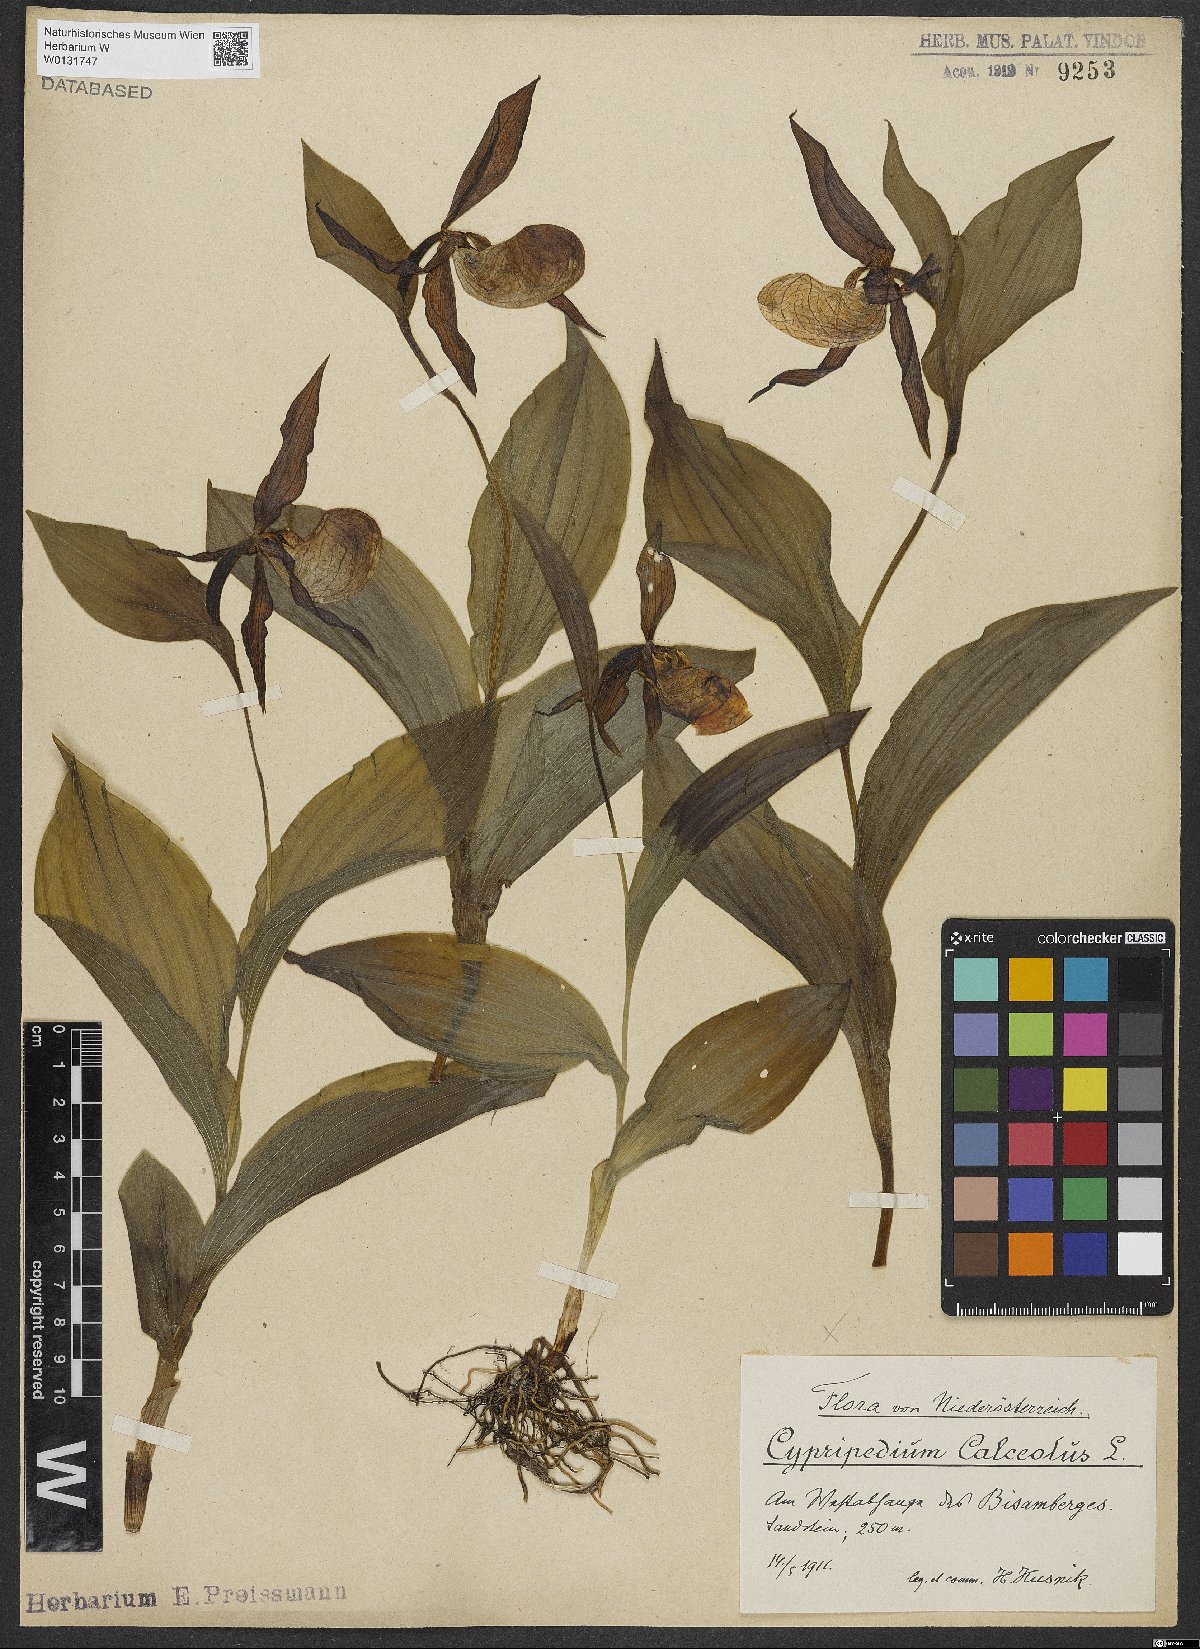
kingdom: Plantae
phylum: Tracheophyta
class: Liliopsida
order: Asparagales
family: Orchidaceae
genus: Cypripedium
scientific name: Cypripedium calceolus
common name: Lady's-slipper
